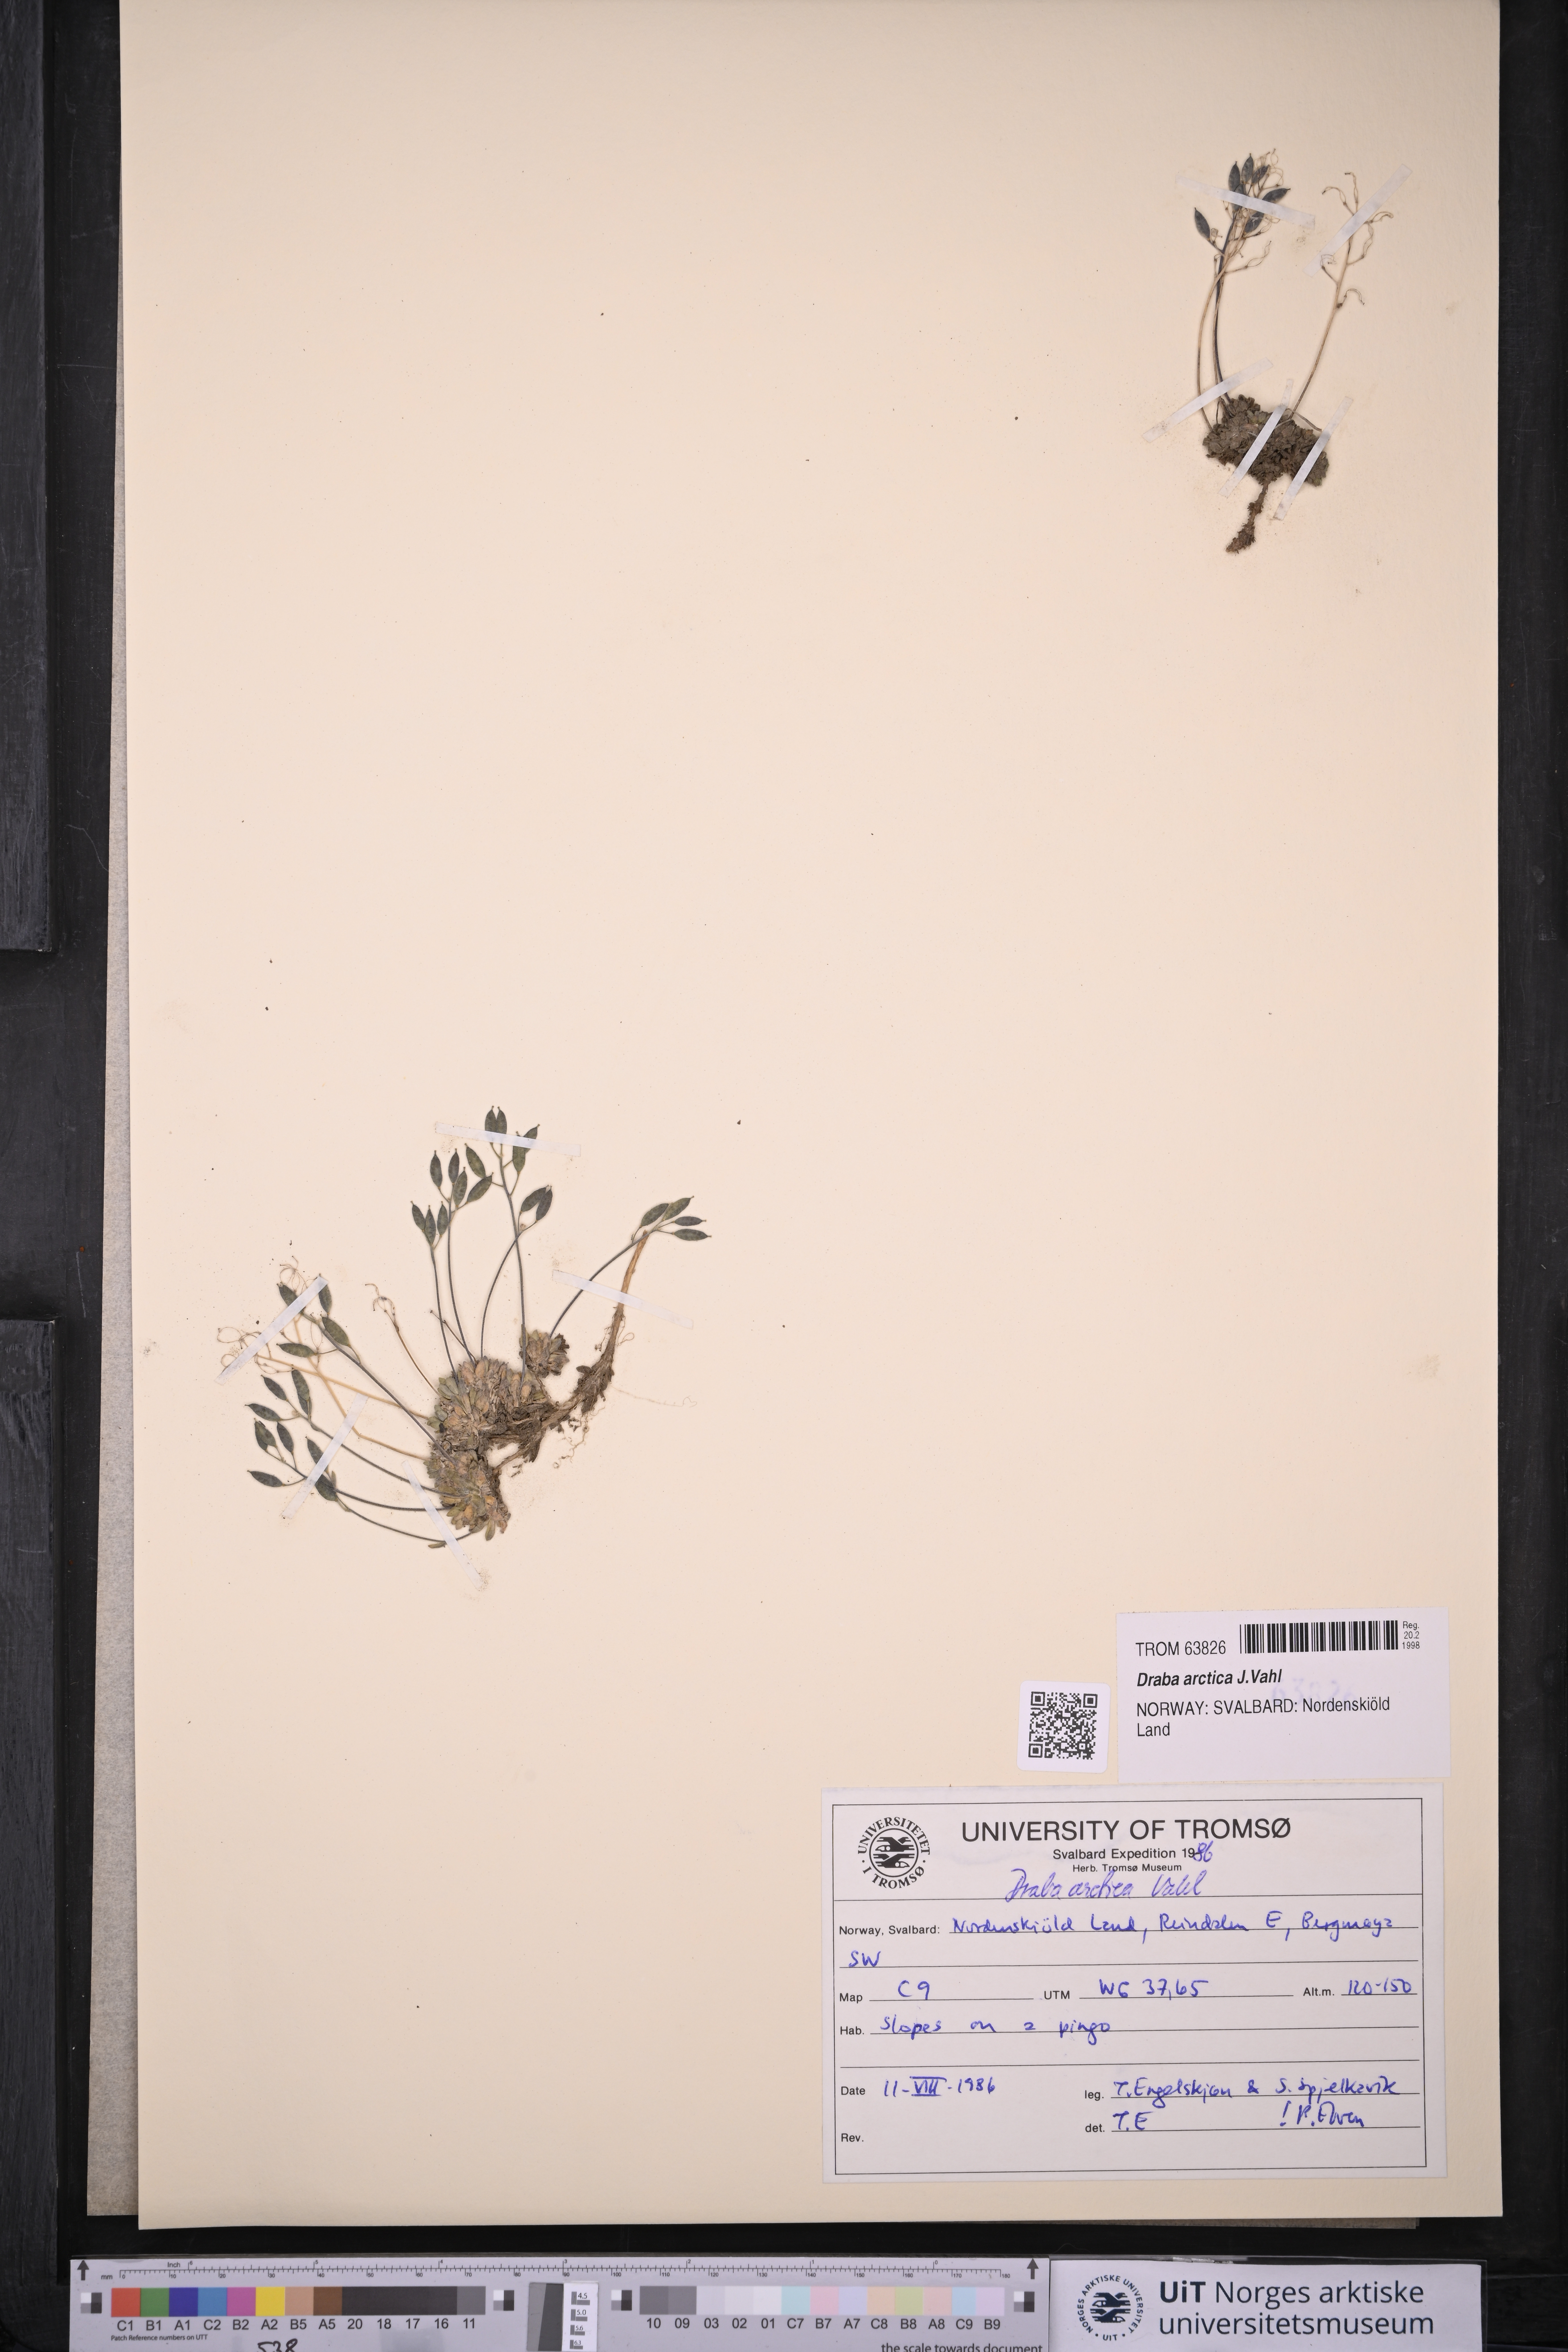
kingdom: Plantae
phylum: Tracheophyta
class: Magnoliopsida
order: Brassicales
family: Brassicaceae
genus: Draba
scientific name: Draba arctica
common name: Arctic draba
